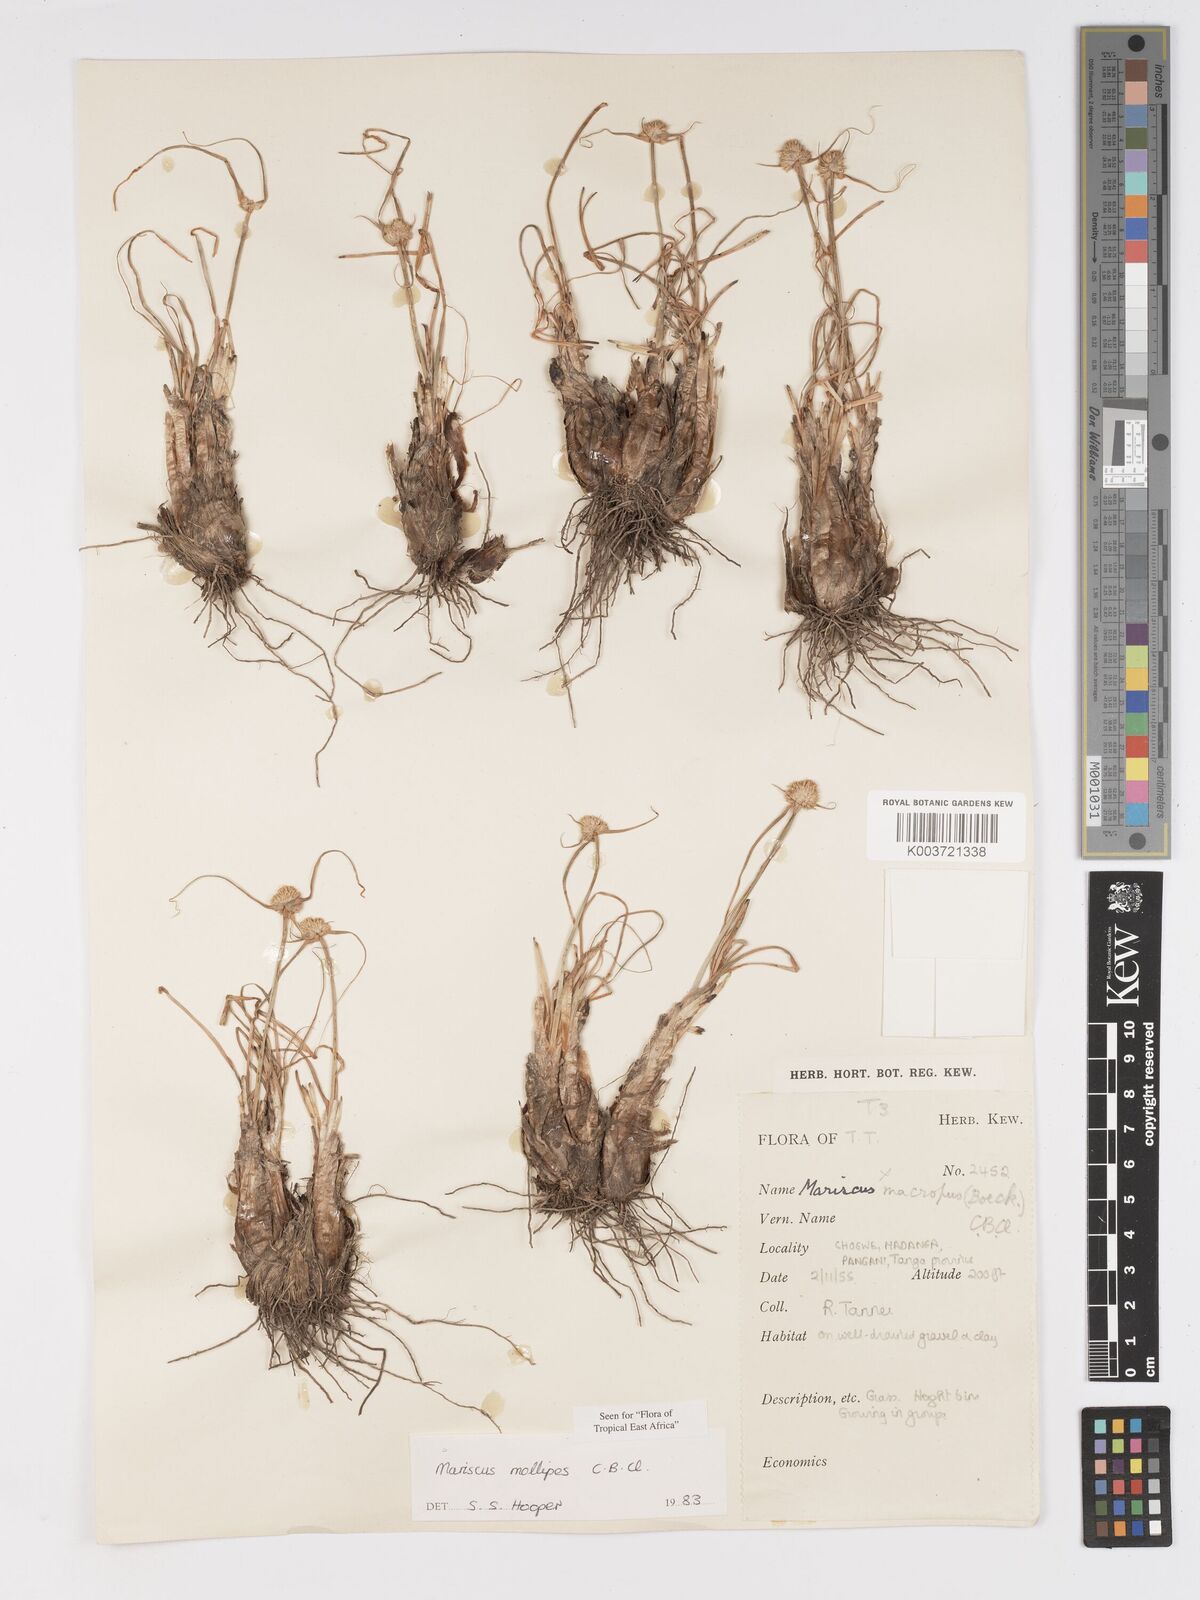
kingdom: Plantae
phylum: Tracheophyta
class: Liliopsida
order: Poales
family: Cyperaceae
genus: Cyperus
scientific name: Cyperus mollipes
